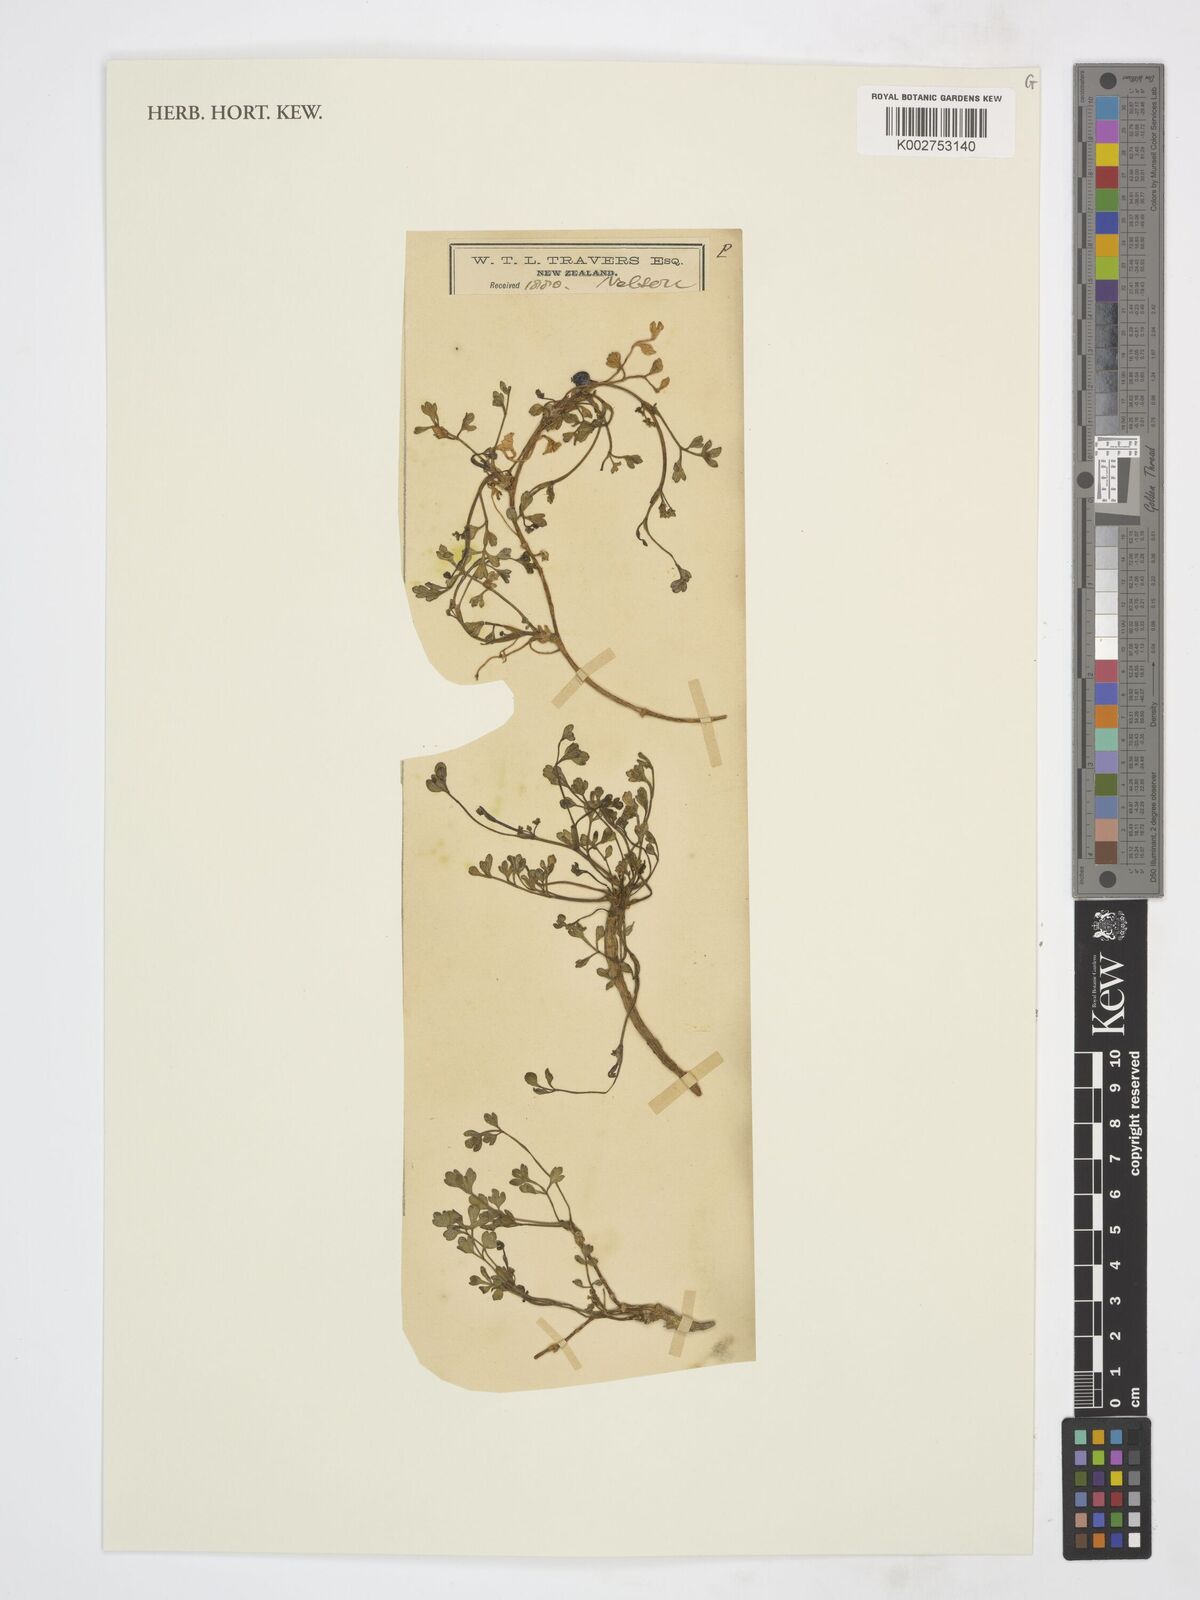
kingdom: Plantae
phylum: Tracheophyta
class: Magnoliopsida
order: Apiales
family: Apiaceae
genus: Apium
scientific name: Apium
